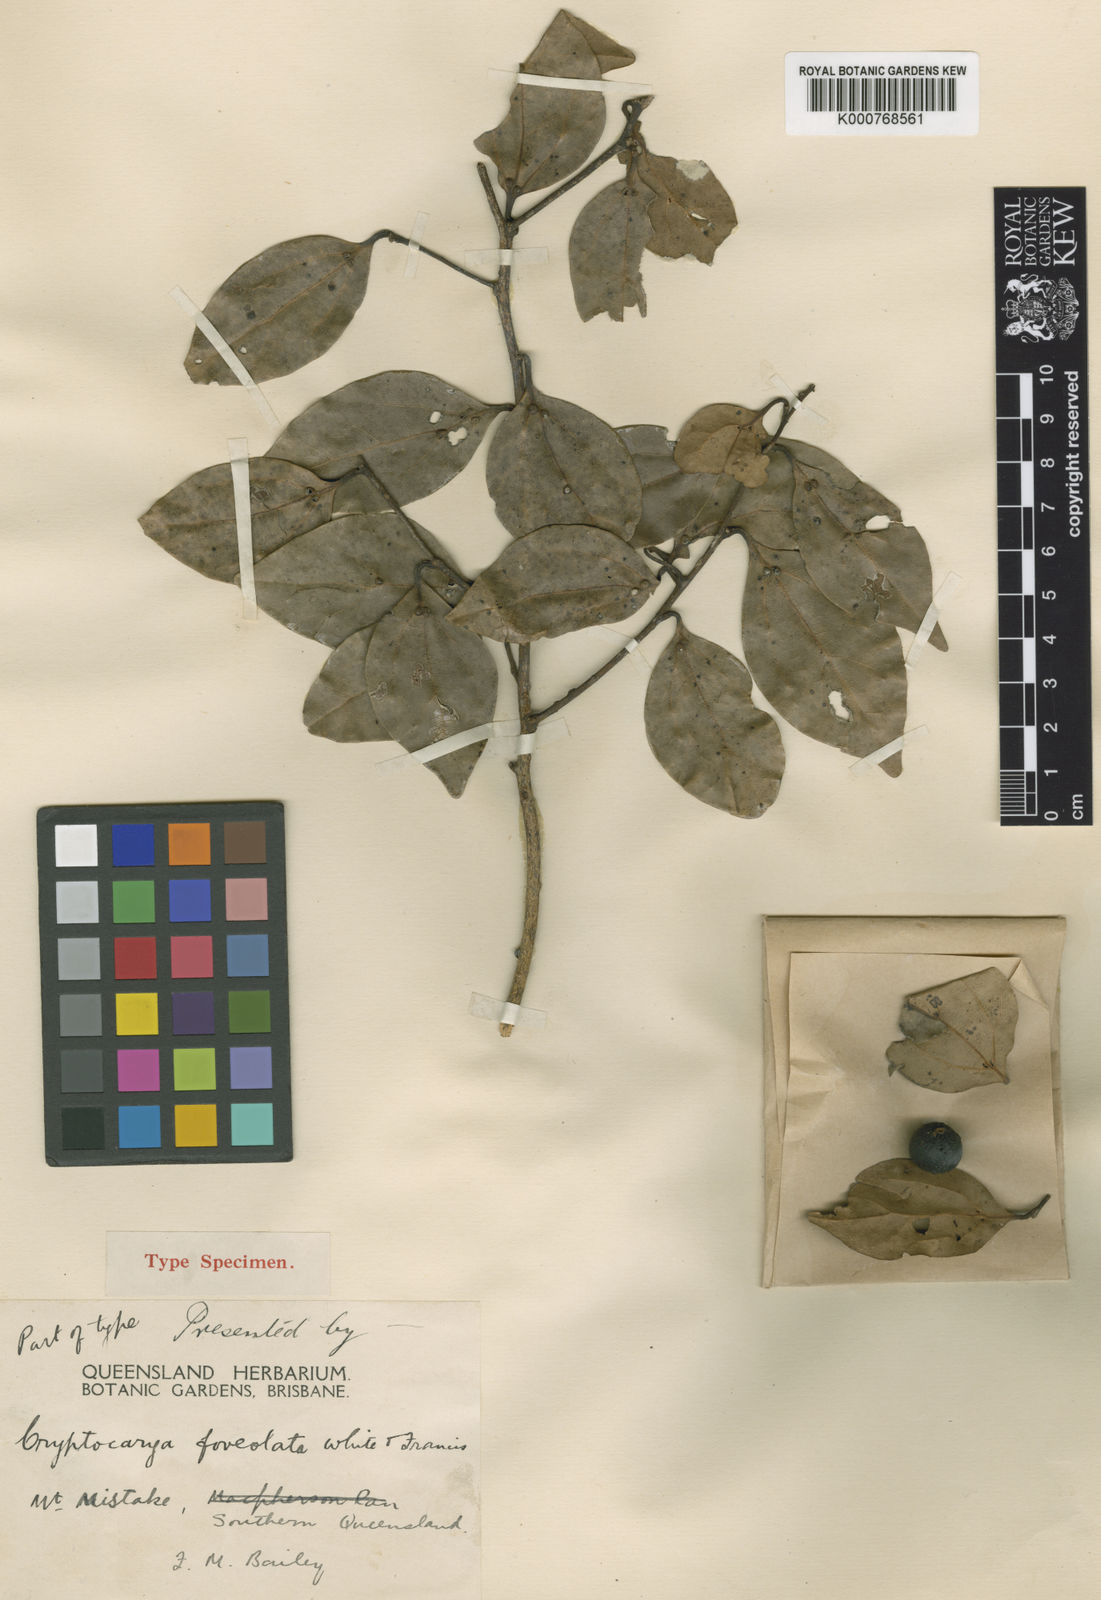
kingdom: Plantae
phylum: Tracheophyta
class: Magnoliopsida
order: Laurales
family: Lauraceae
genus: Cryptocarya
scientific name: Cryptocarya foveolata
